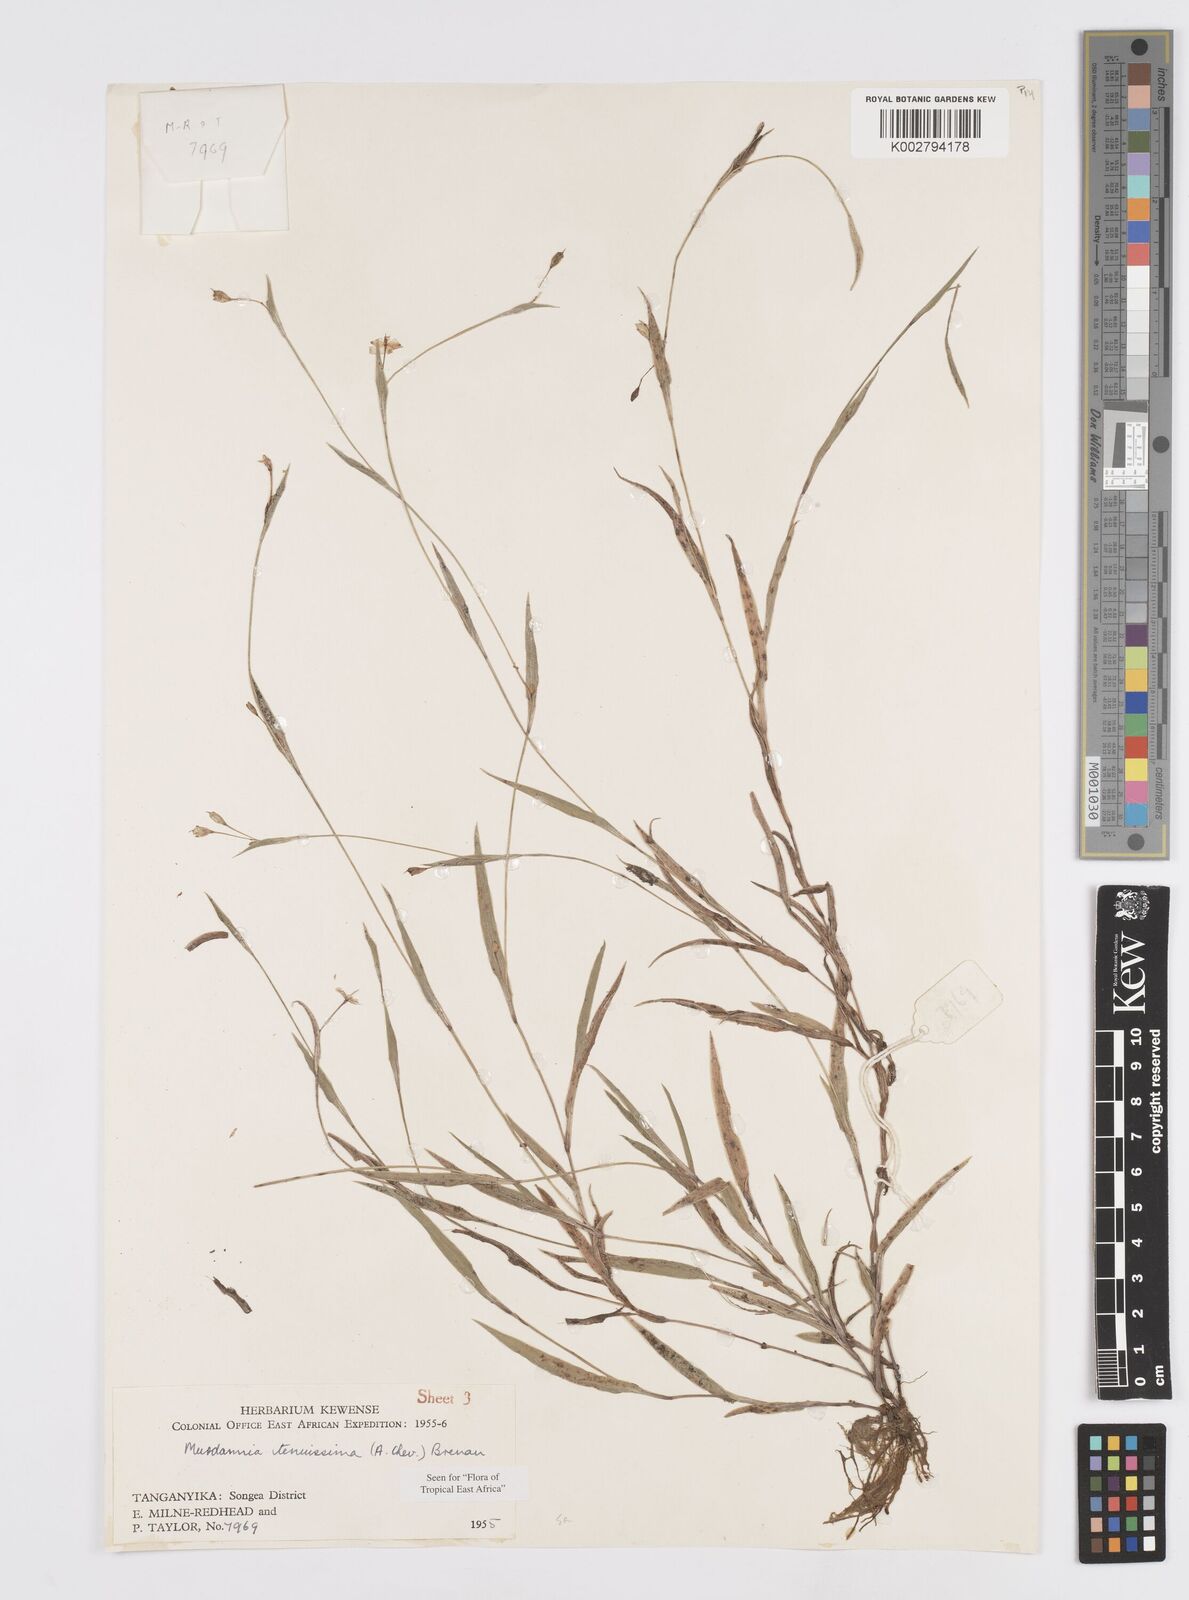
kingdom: Plantae
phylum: Tracheophyta
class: Liliopsida
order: Commelinales
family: Commelinaceae
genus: Murdannia
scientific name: Murdannia tenuissima
